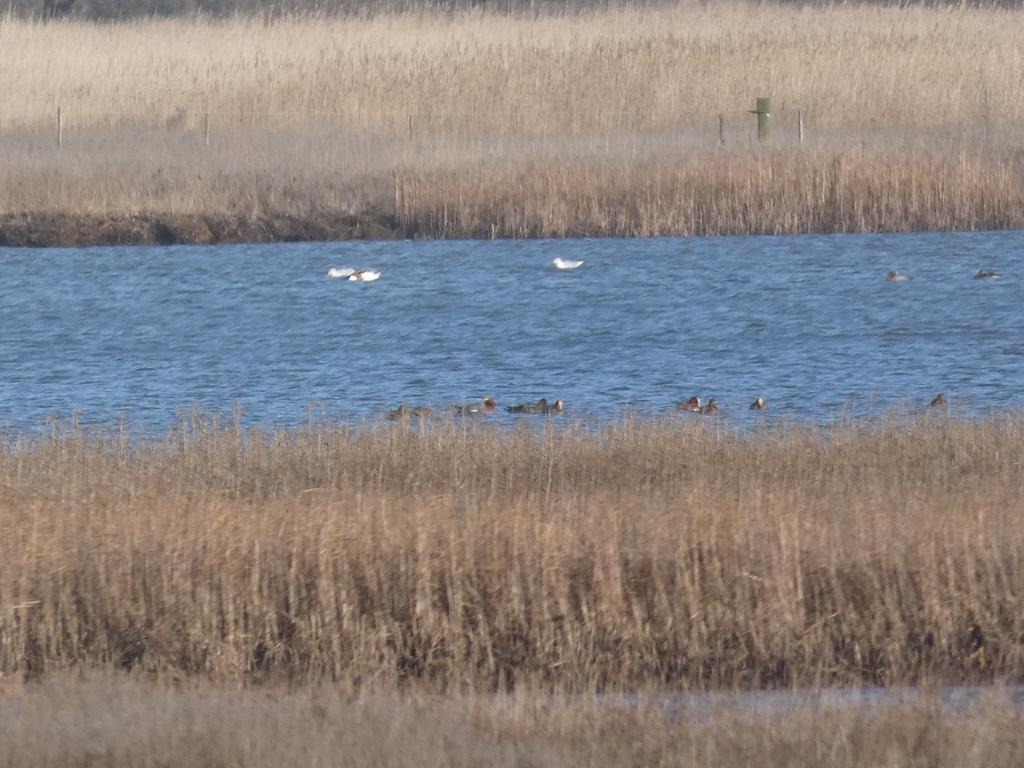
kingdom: Animalia
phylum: Chordata
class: Aves
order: Anseriformes
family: Anatidae
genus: Mareca
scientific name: Mareca penelope
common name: Pibeand
